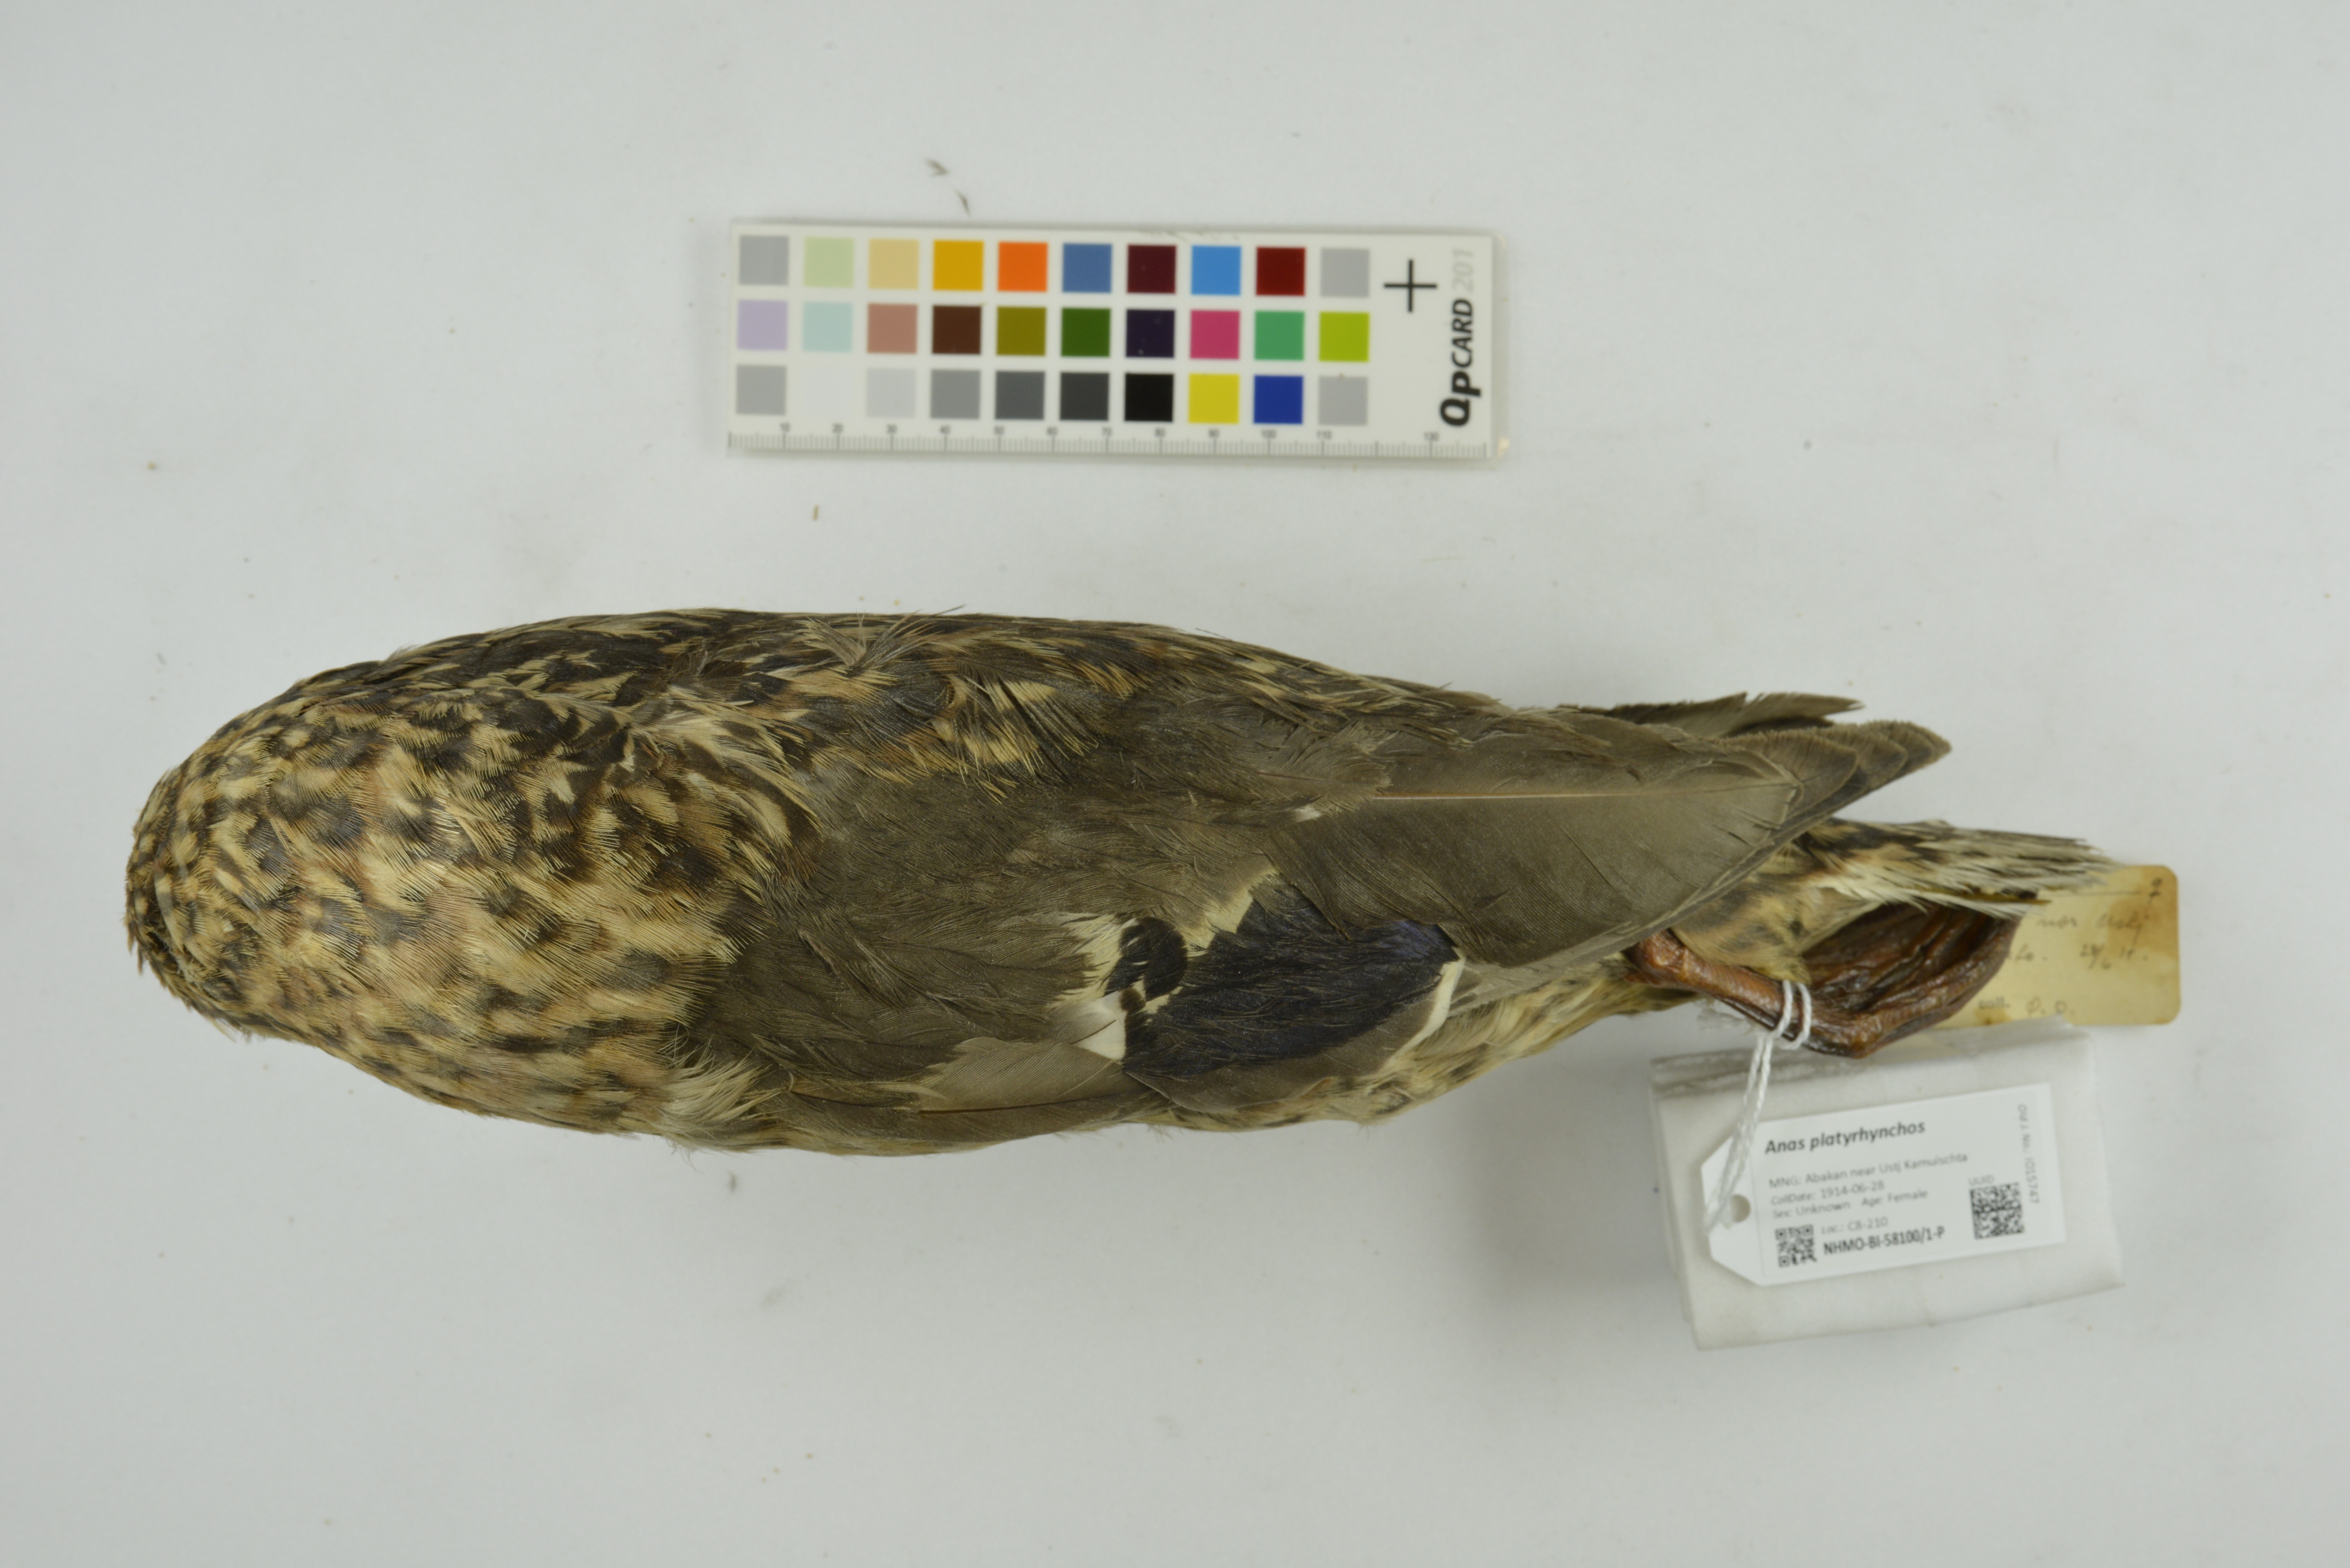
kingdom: Animalia
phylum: Chordata
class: Aves
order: Anseriformes
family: Anatidae
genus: Anas
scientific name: Anas platyrhynchos
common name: Mallard
